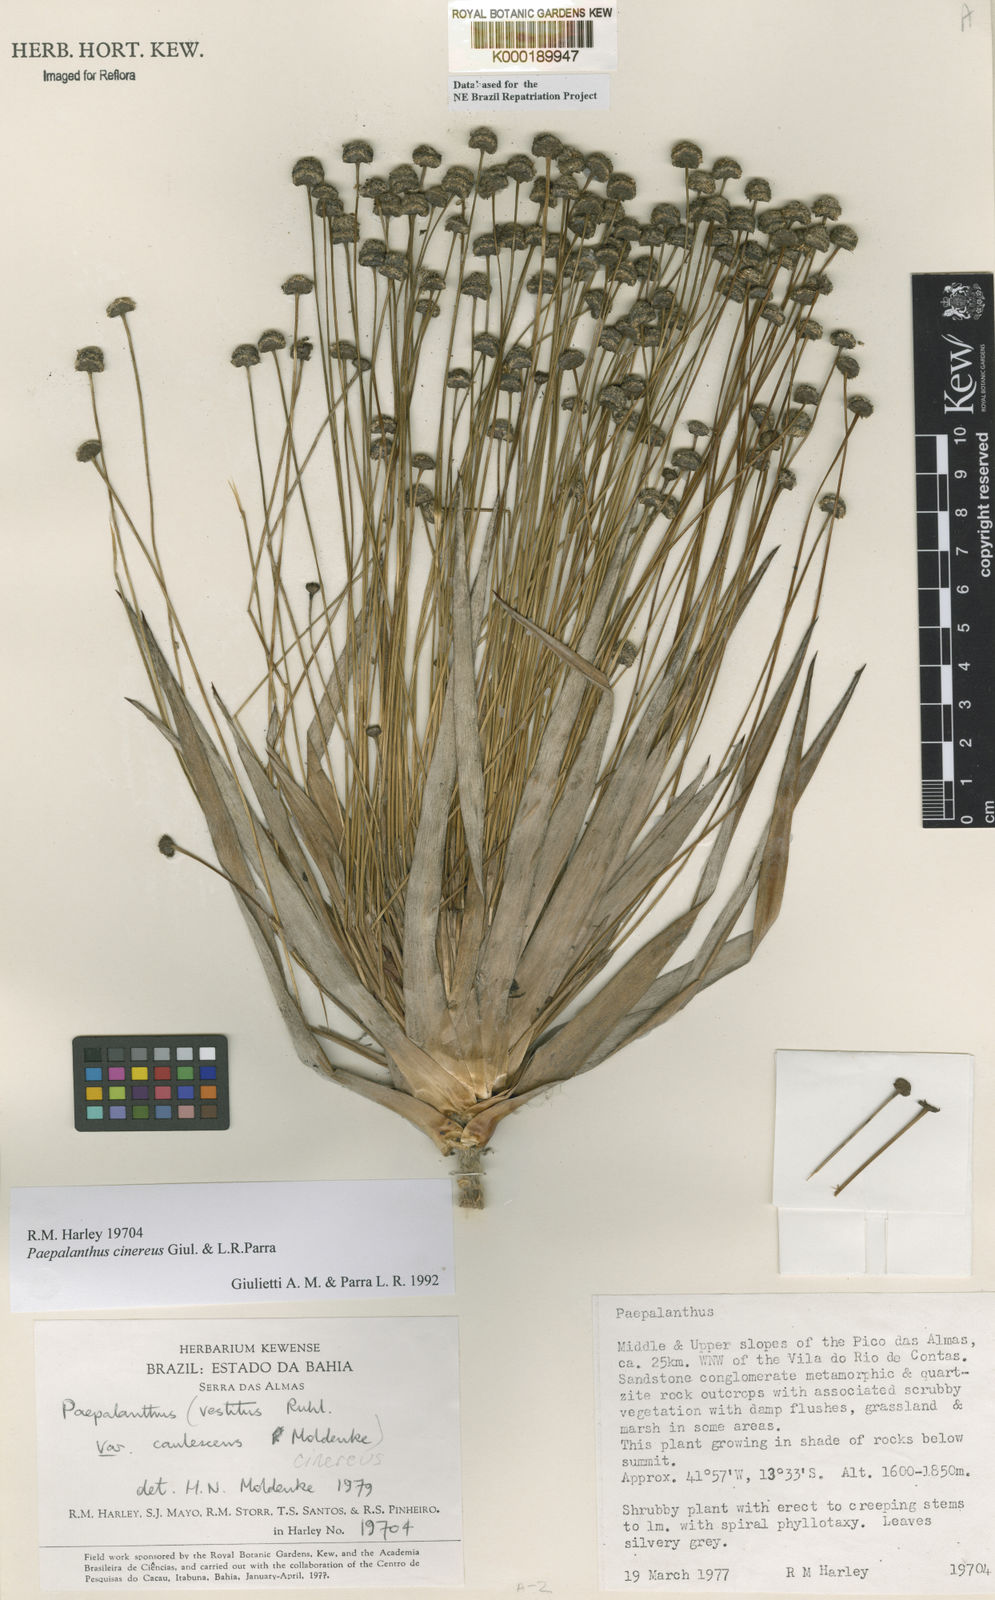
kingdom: Plantae
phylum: Tracheophyta
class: Liliopsida
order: Poales
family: Eriocaulaceae
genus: Paepalanthus
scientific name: Paepalanthus cinereus
